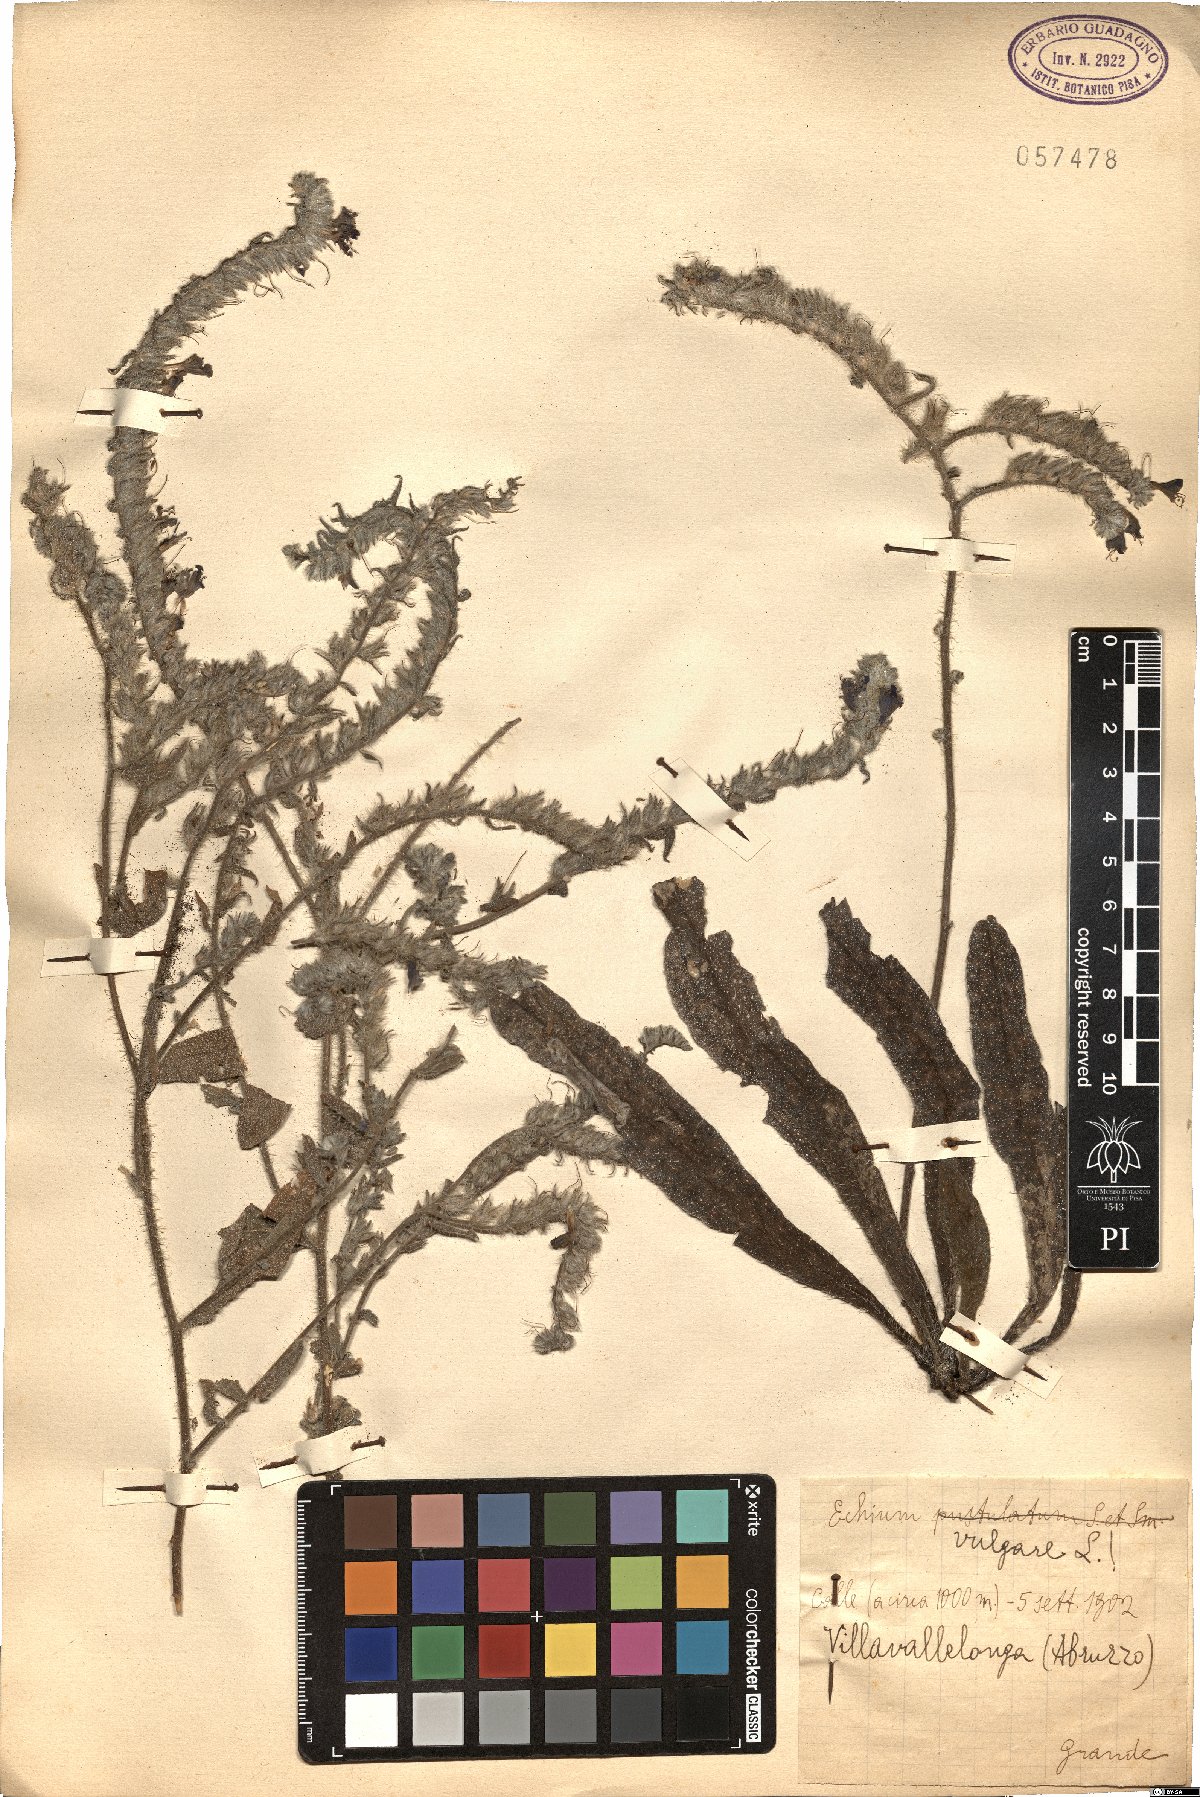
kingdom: Plantae
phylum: Tracheophyta
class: Magnoliopsida
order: Boraginales
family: Boraginaceae
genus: Echium
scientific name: Echium vulgare
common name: Common viper's bugloss
